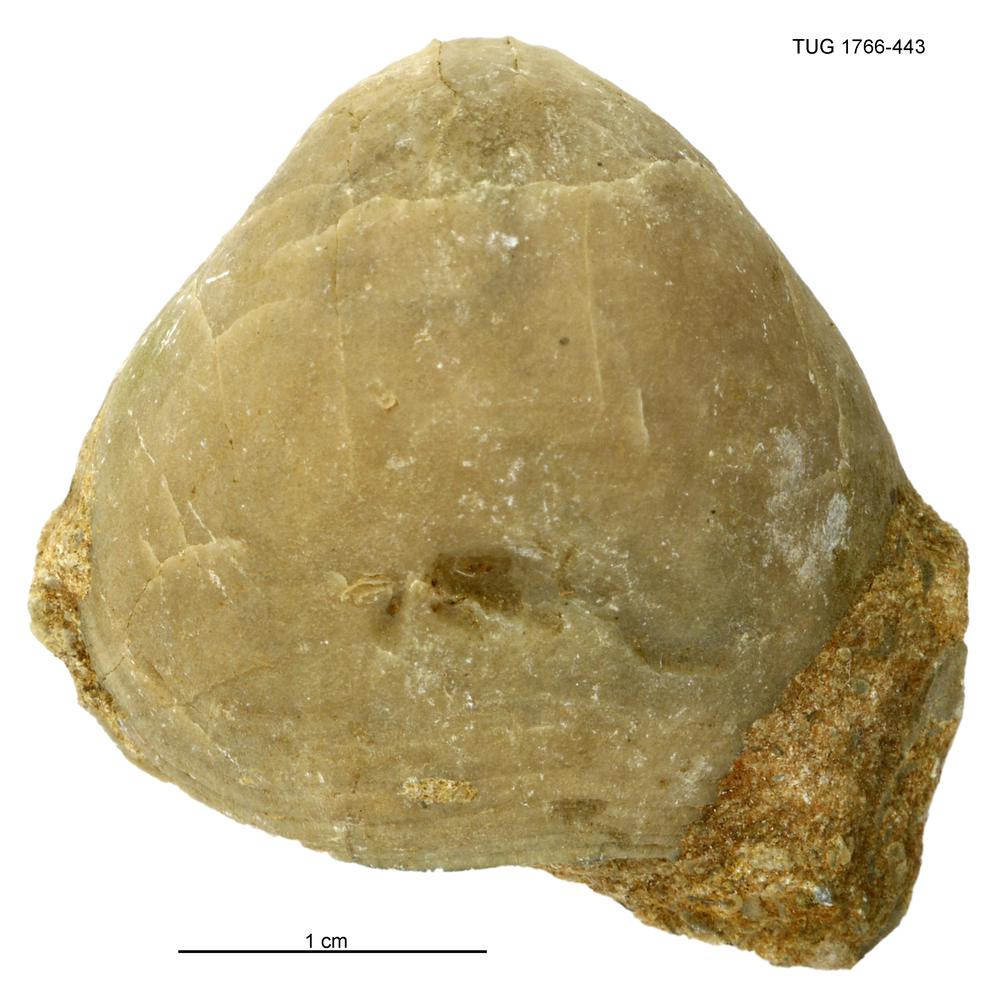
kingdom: Animalia
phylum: Brachiopoda
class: Rhynchonellata
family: Porambonitidae
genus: Porambonites
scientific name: Porambonites
